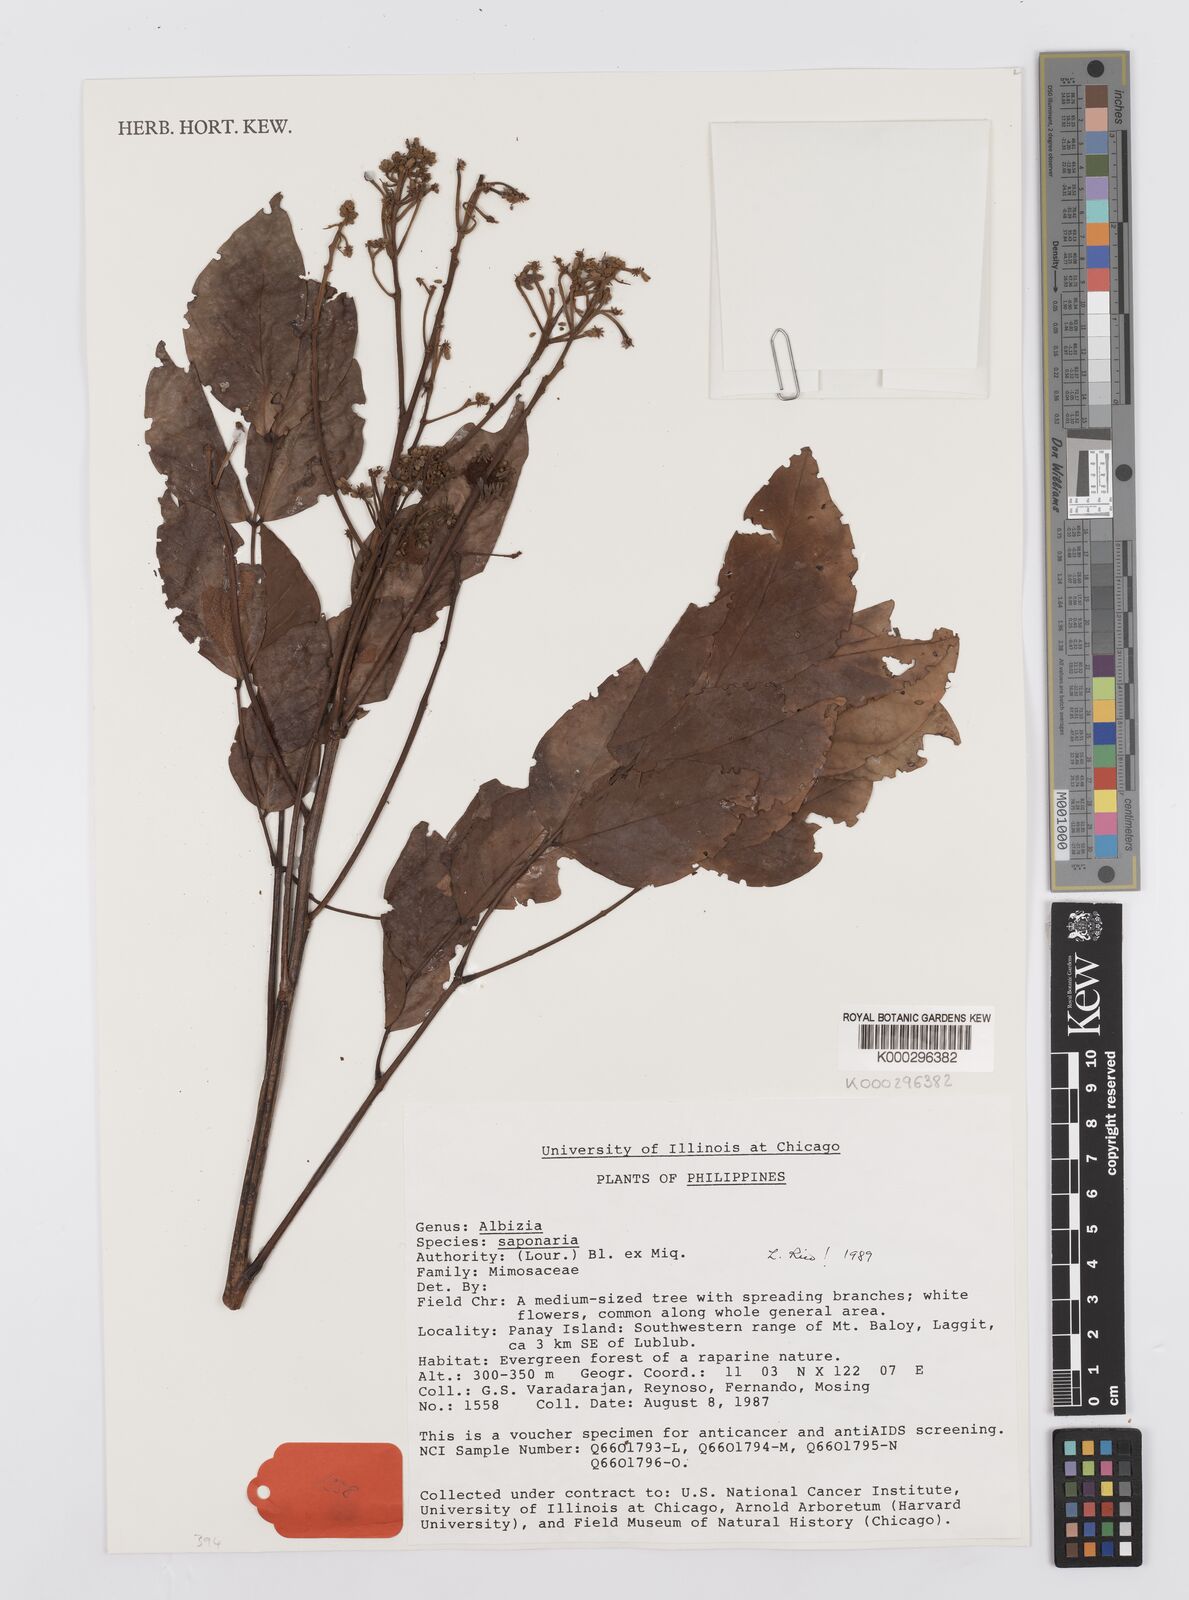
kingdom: Plantae
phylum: Tracheophyta
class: Magnoliopsida
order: Fabales
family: Fabaceae
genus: Albizia
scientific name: Albizia saponaria
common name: Whiteflower albizia
